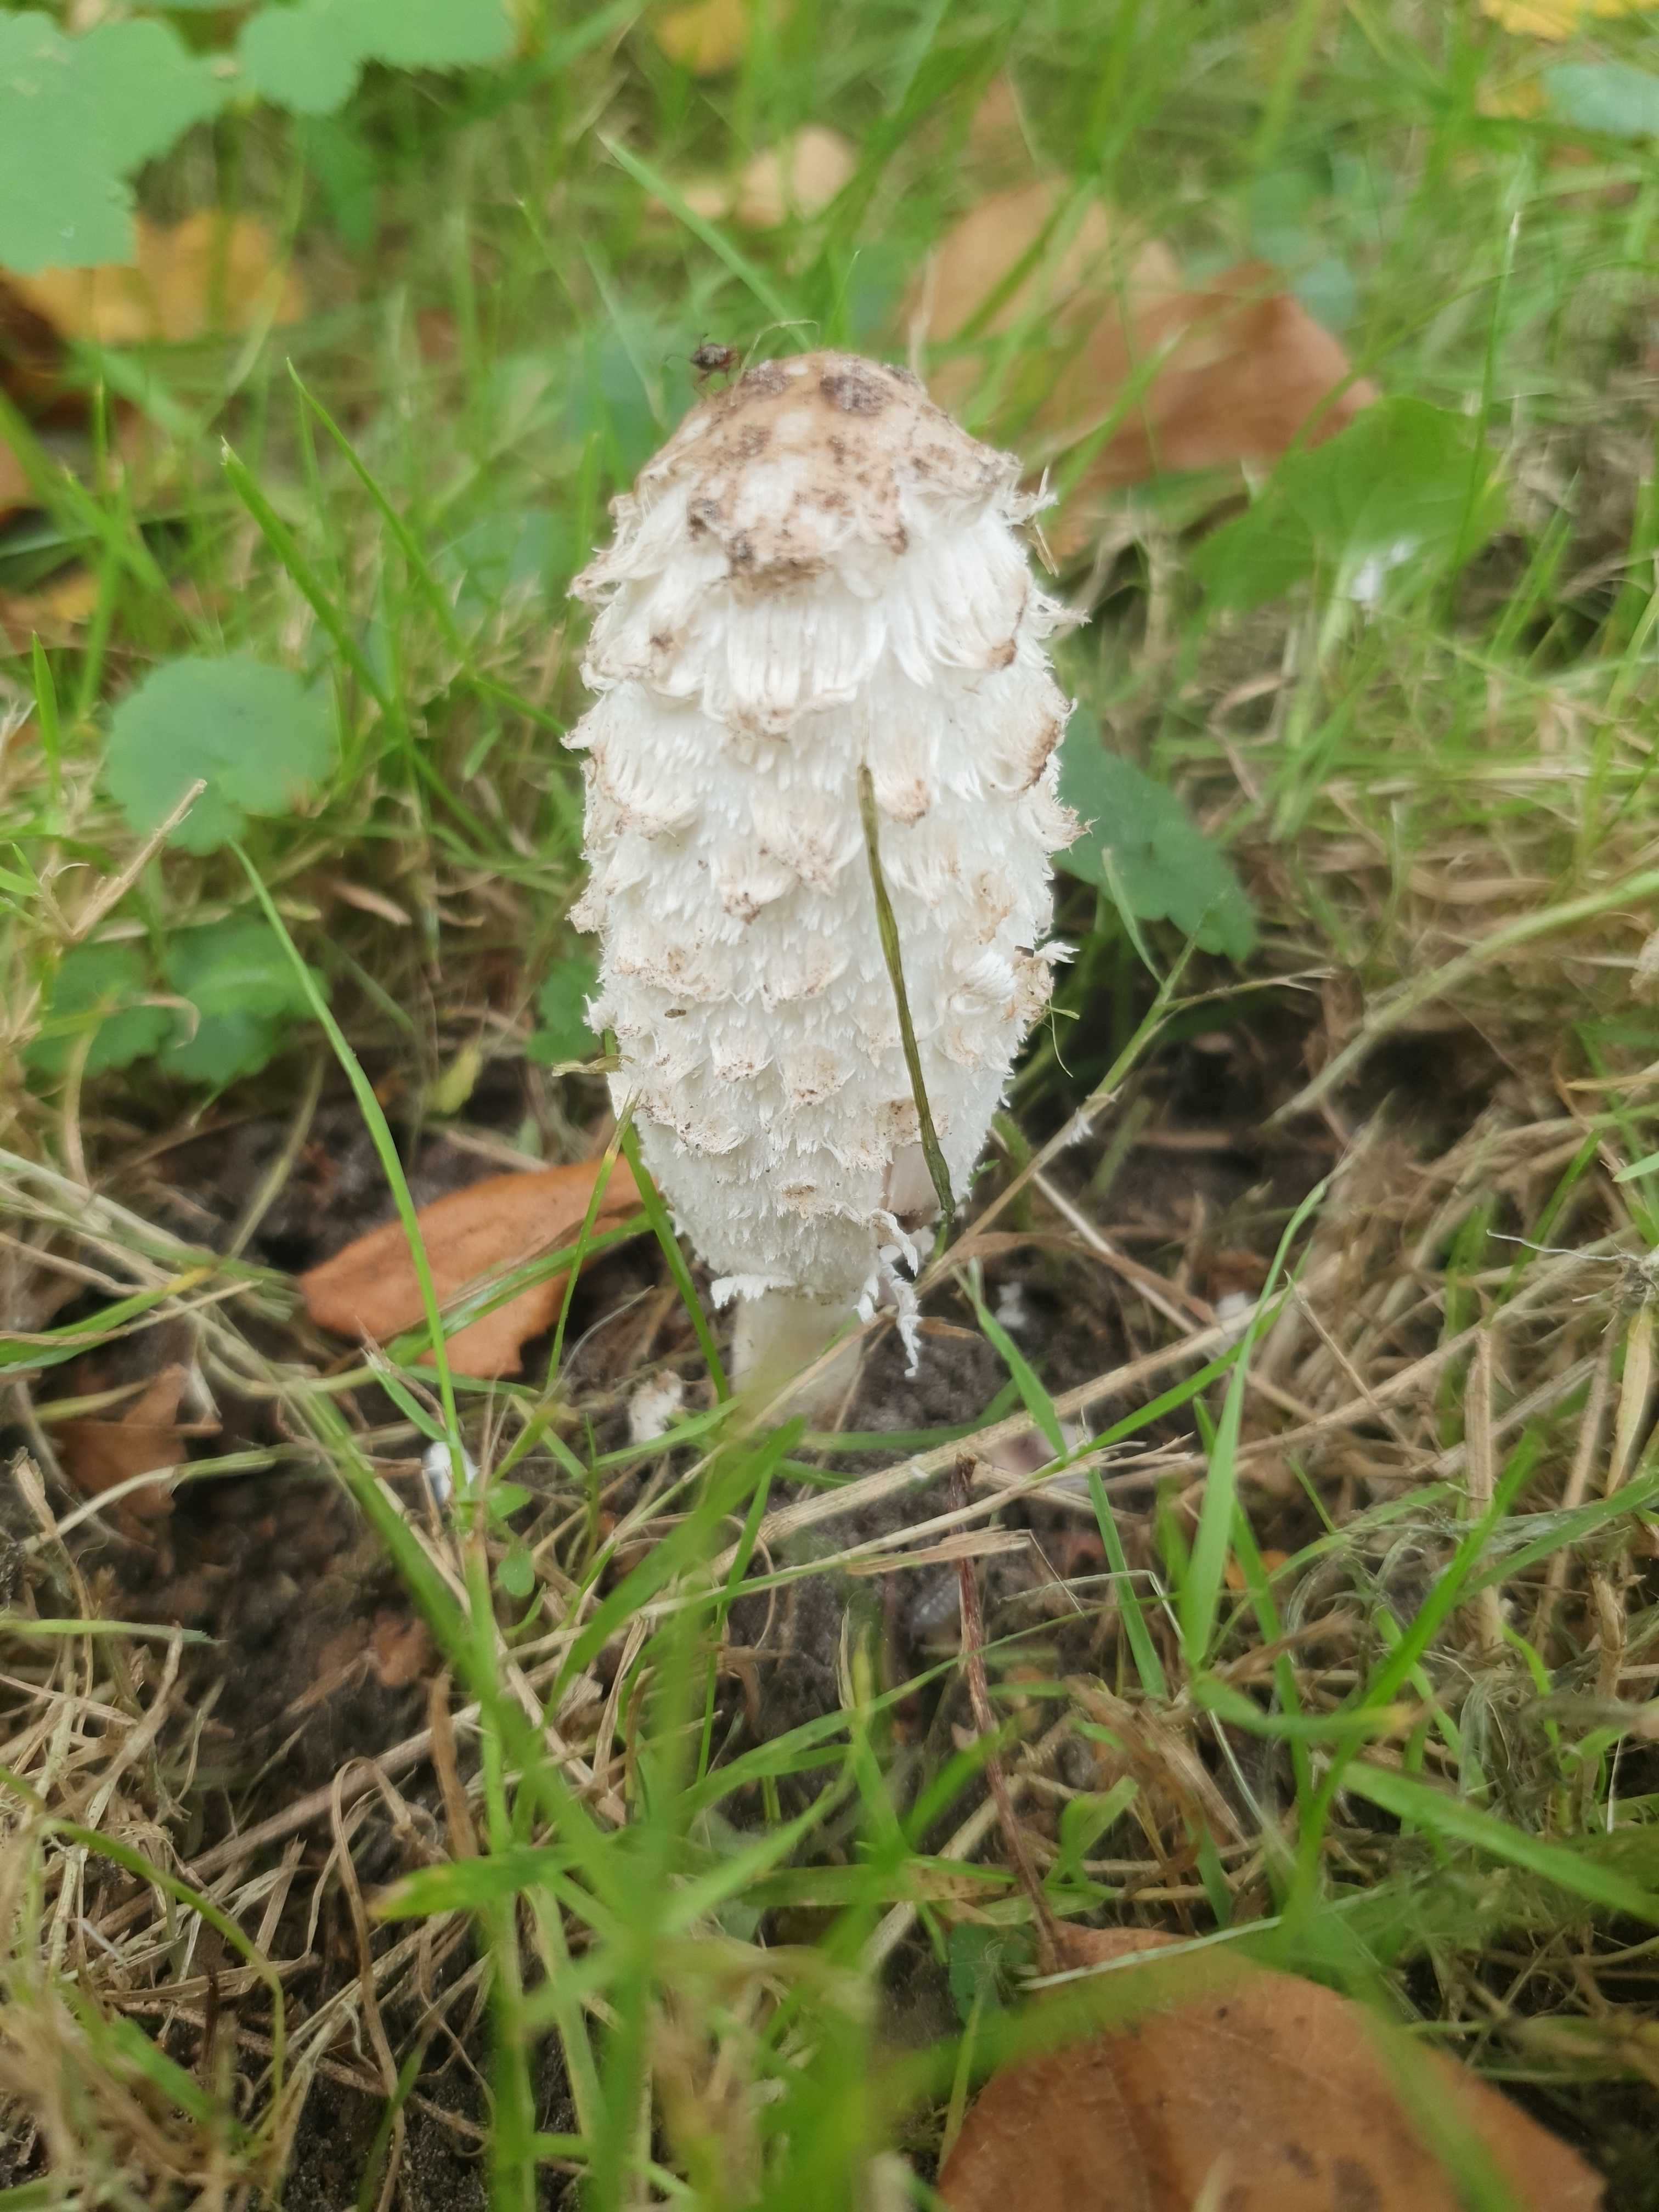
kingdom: Fungi
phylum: Basidiomycota
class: Agaricomycetes
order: Agaricales
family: Agaricaceae
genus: Coprinus
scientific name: Coprinus comatus
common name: stor parykhat
